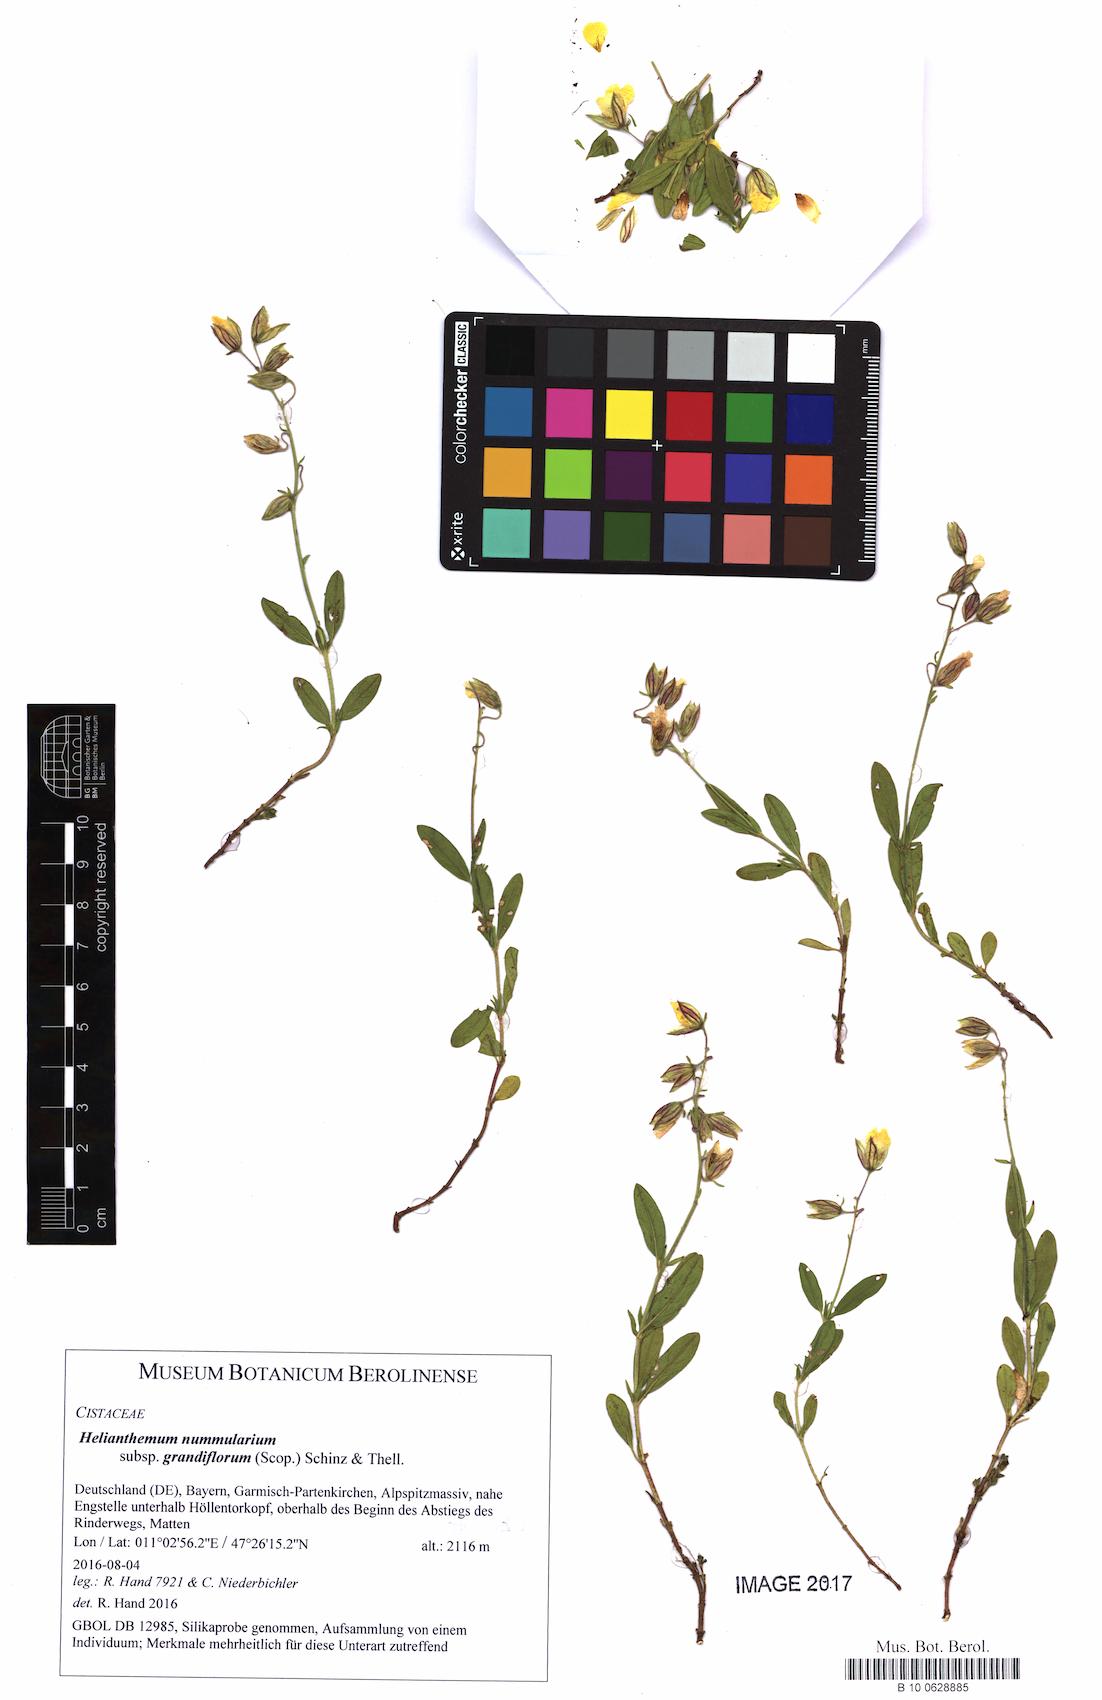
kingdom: Plantae
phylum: Tracheophyta
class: Magnoliopsida
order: Malvales
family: Cistaceae
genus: Helianthemum
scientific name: Helianthemum nummularium
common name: Common rock-rose
